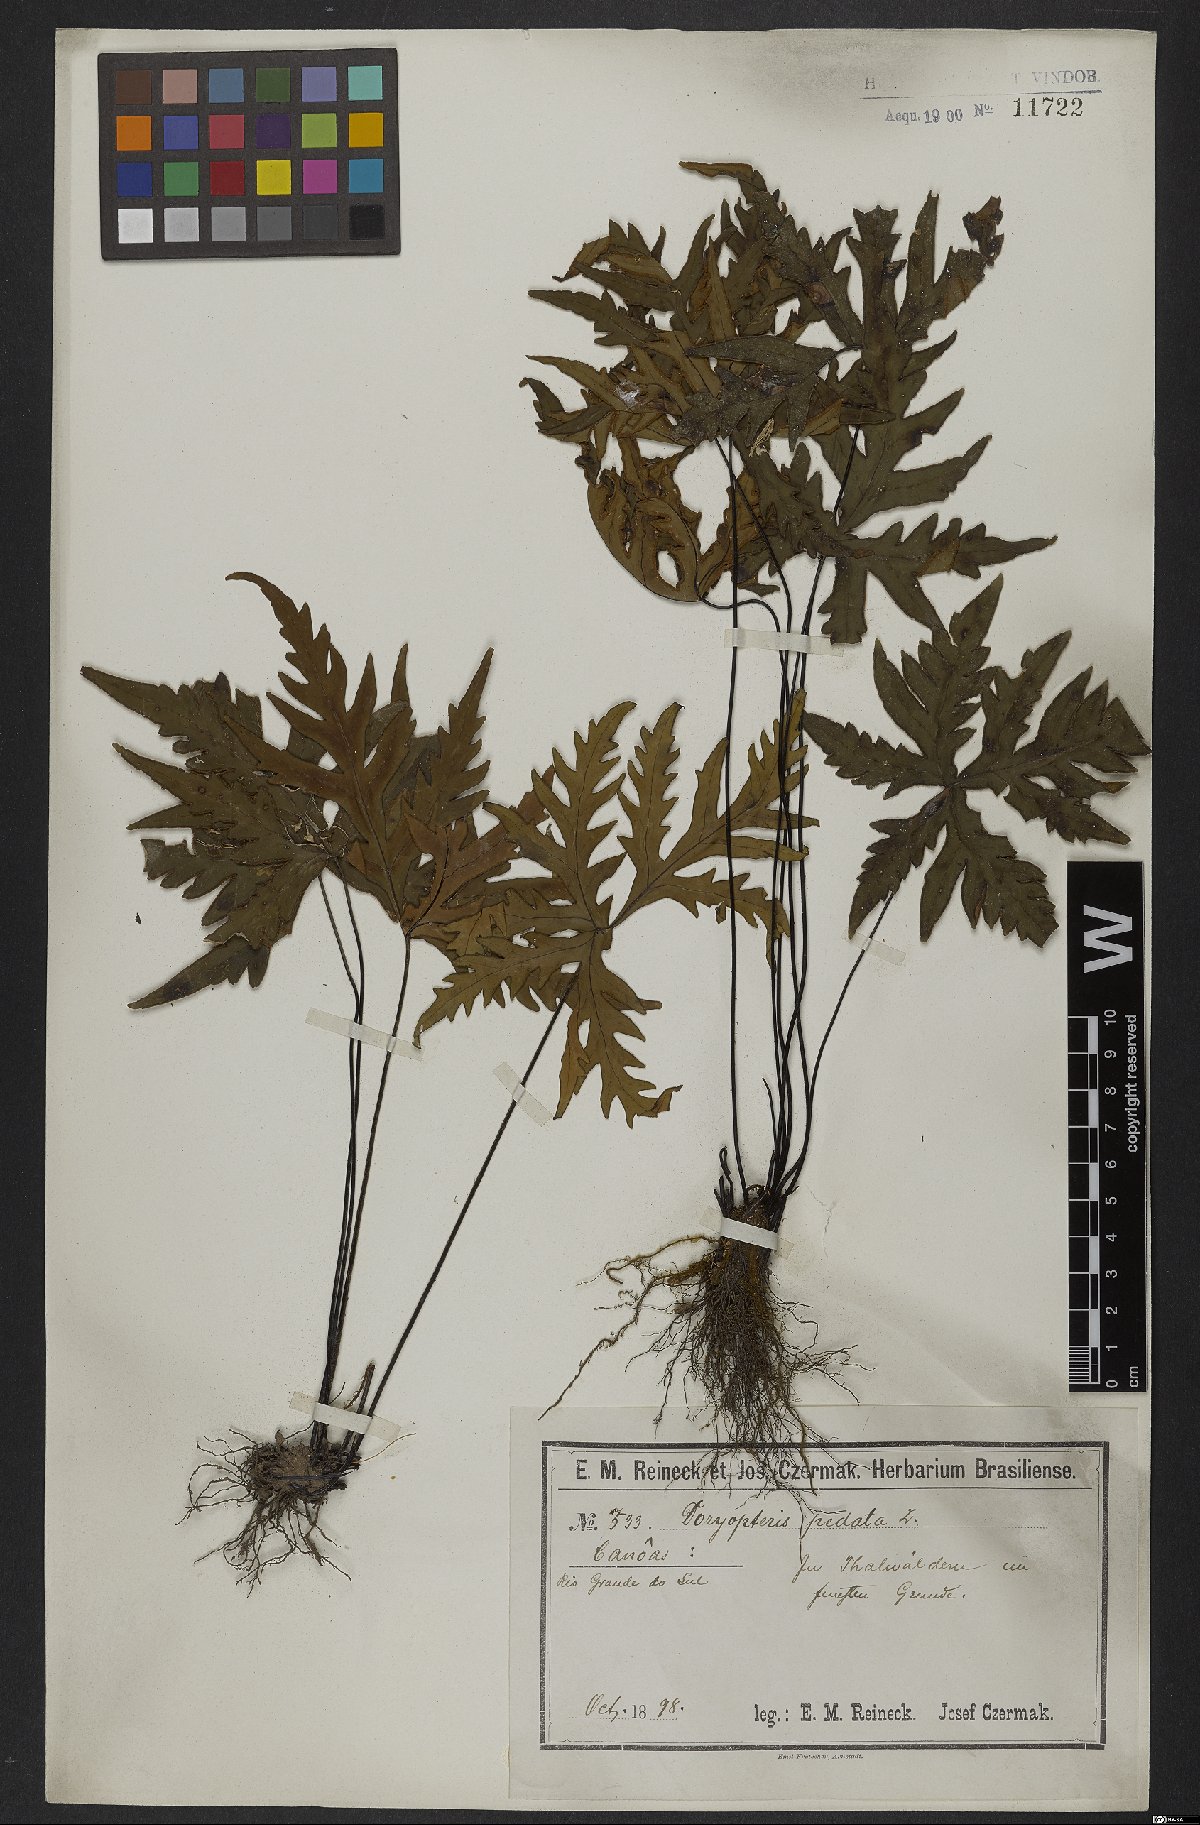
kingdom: Plantae
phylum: Tracheophyta
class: Polypodiopsida
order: Polypodiales
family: Pteridaceae
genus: Doryopteris
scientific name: Doryopteris pedata
